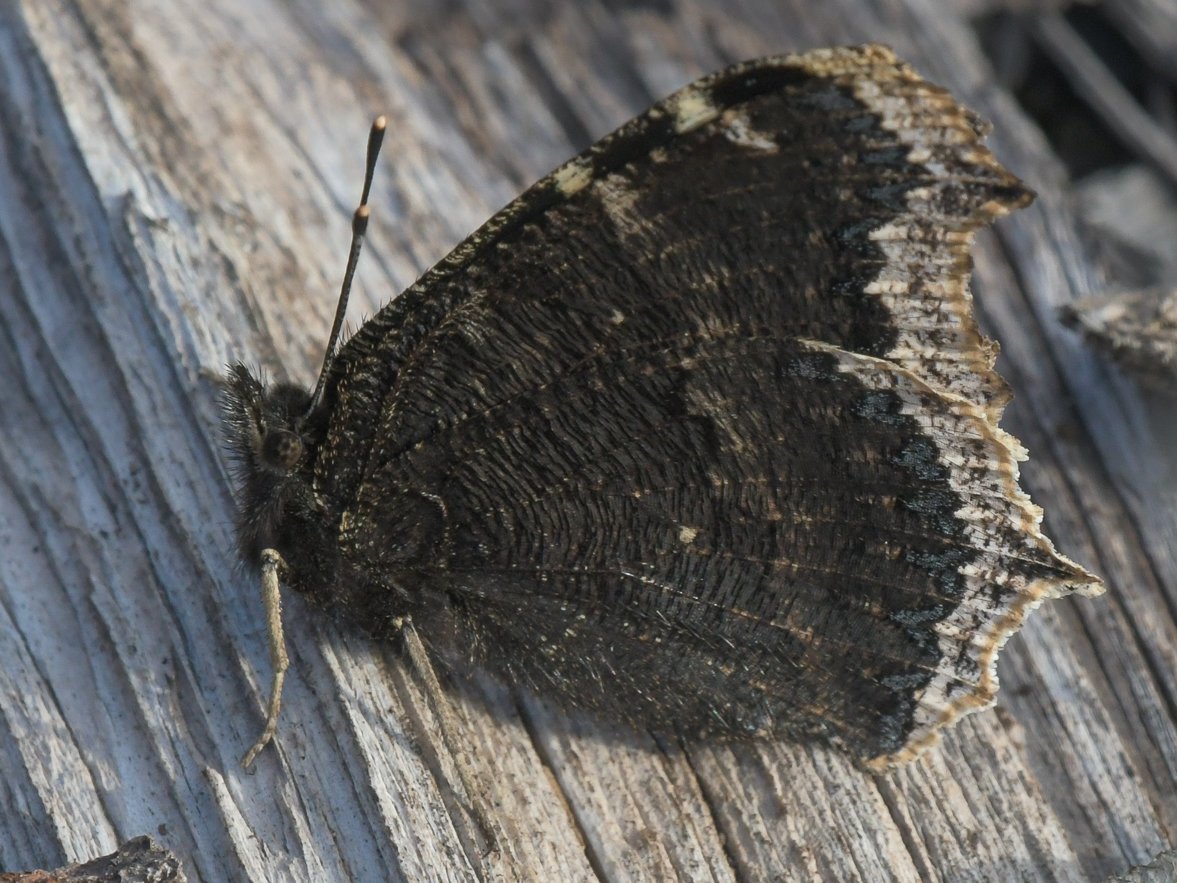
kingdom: Animalia
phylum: Arthropoda
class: Insecta
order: Lepidoptera
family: Nymphalidae
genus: Nymphalis
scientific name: Nymphalis antiopa
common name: Mourning Cloak
